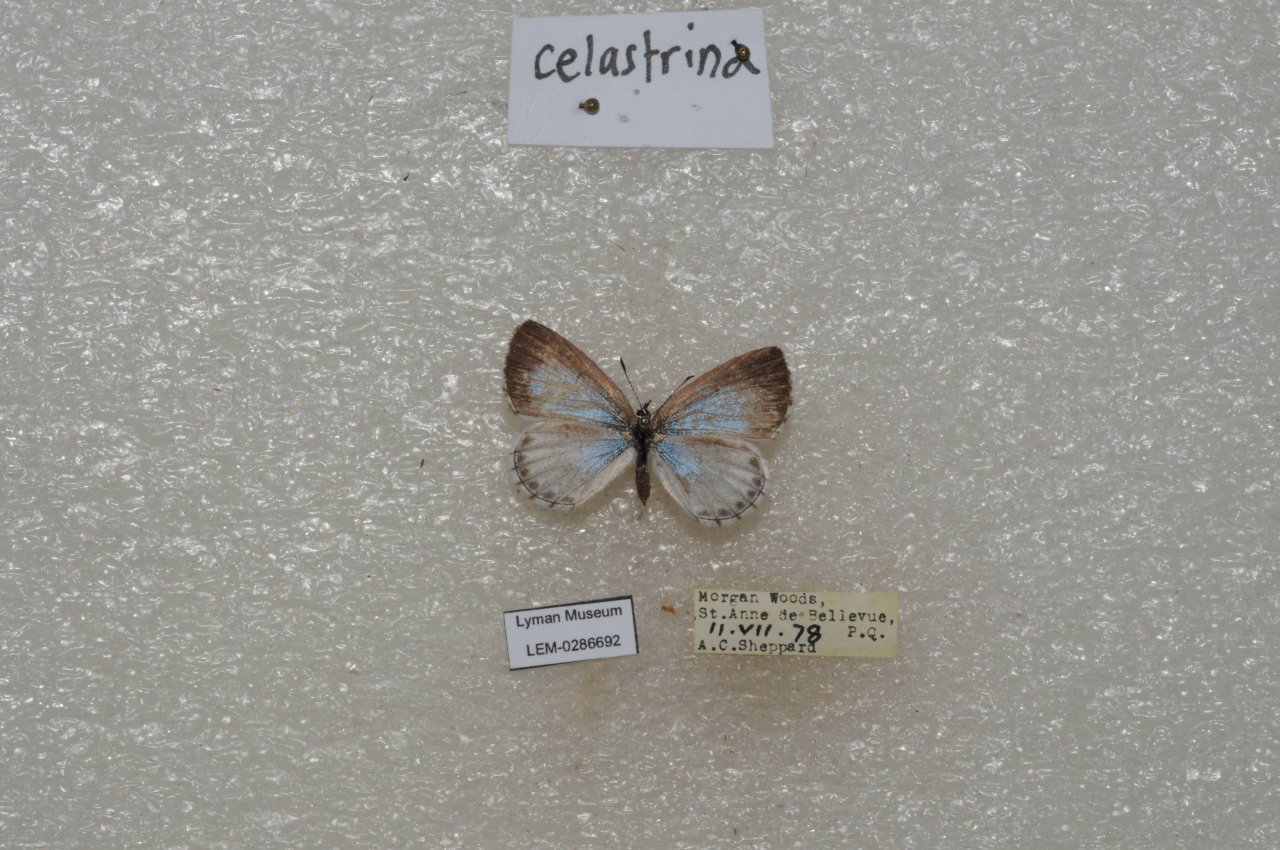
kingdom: Animalia
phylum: Arthropoda
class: Insecta
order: Lepidoptera
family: Lycaenidae
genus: Celastrina
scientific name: Celastrina lucia
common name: Northern Spring Azure
